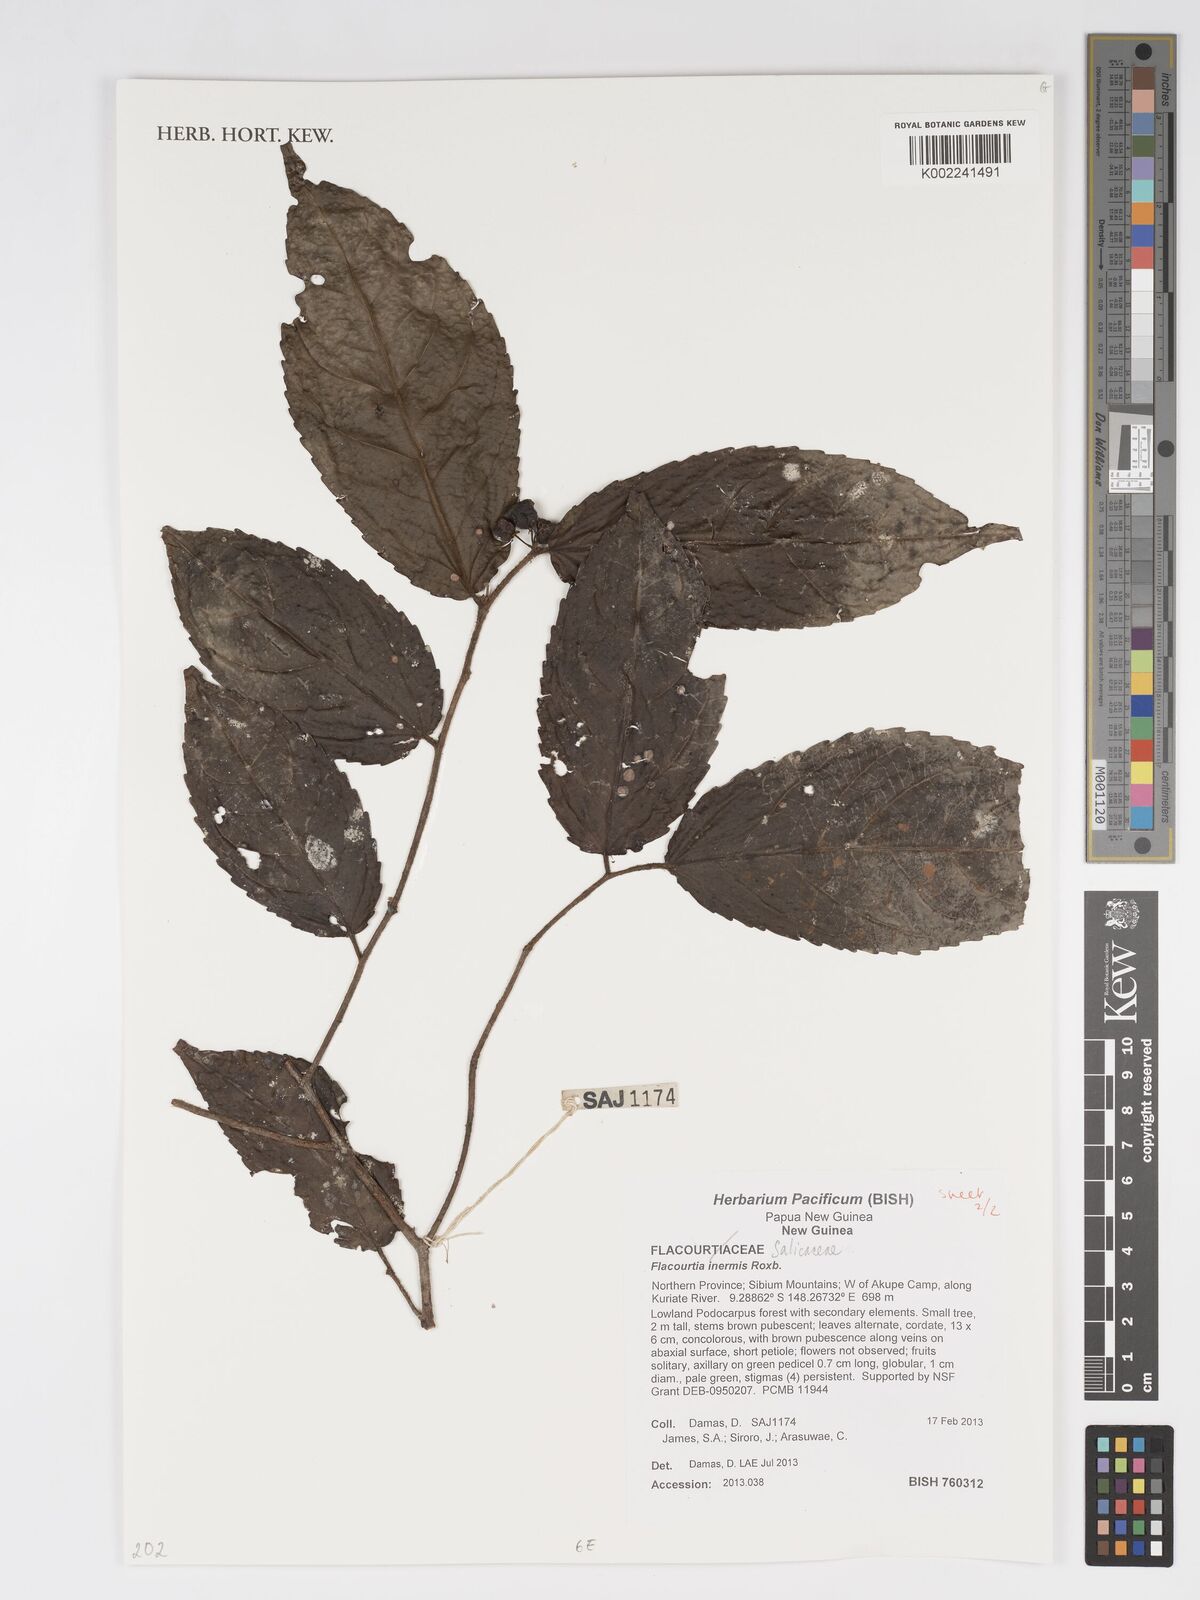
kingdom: Plantae
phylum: Tracheophyta
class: Magnoliopsida
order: Malpighiales
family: Salicaceae
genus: Flacourtia
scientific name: Flacourtia inermis
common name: Plum-of-martinique
